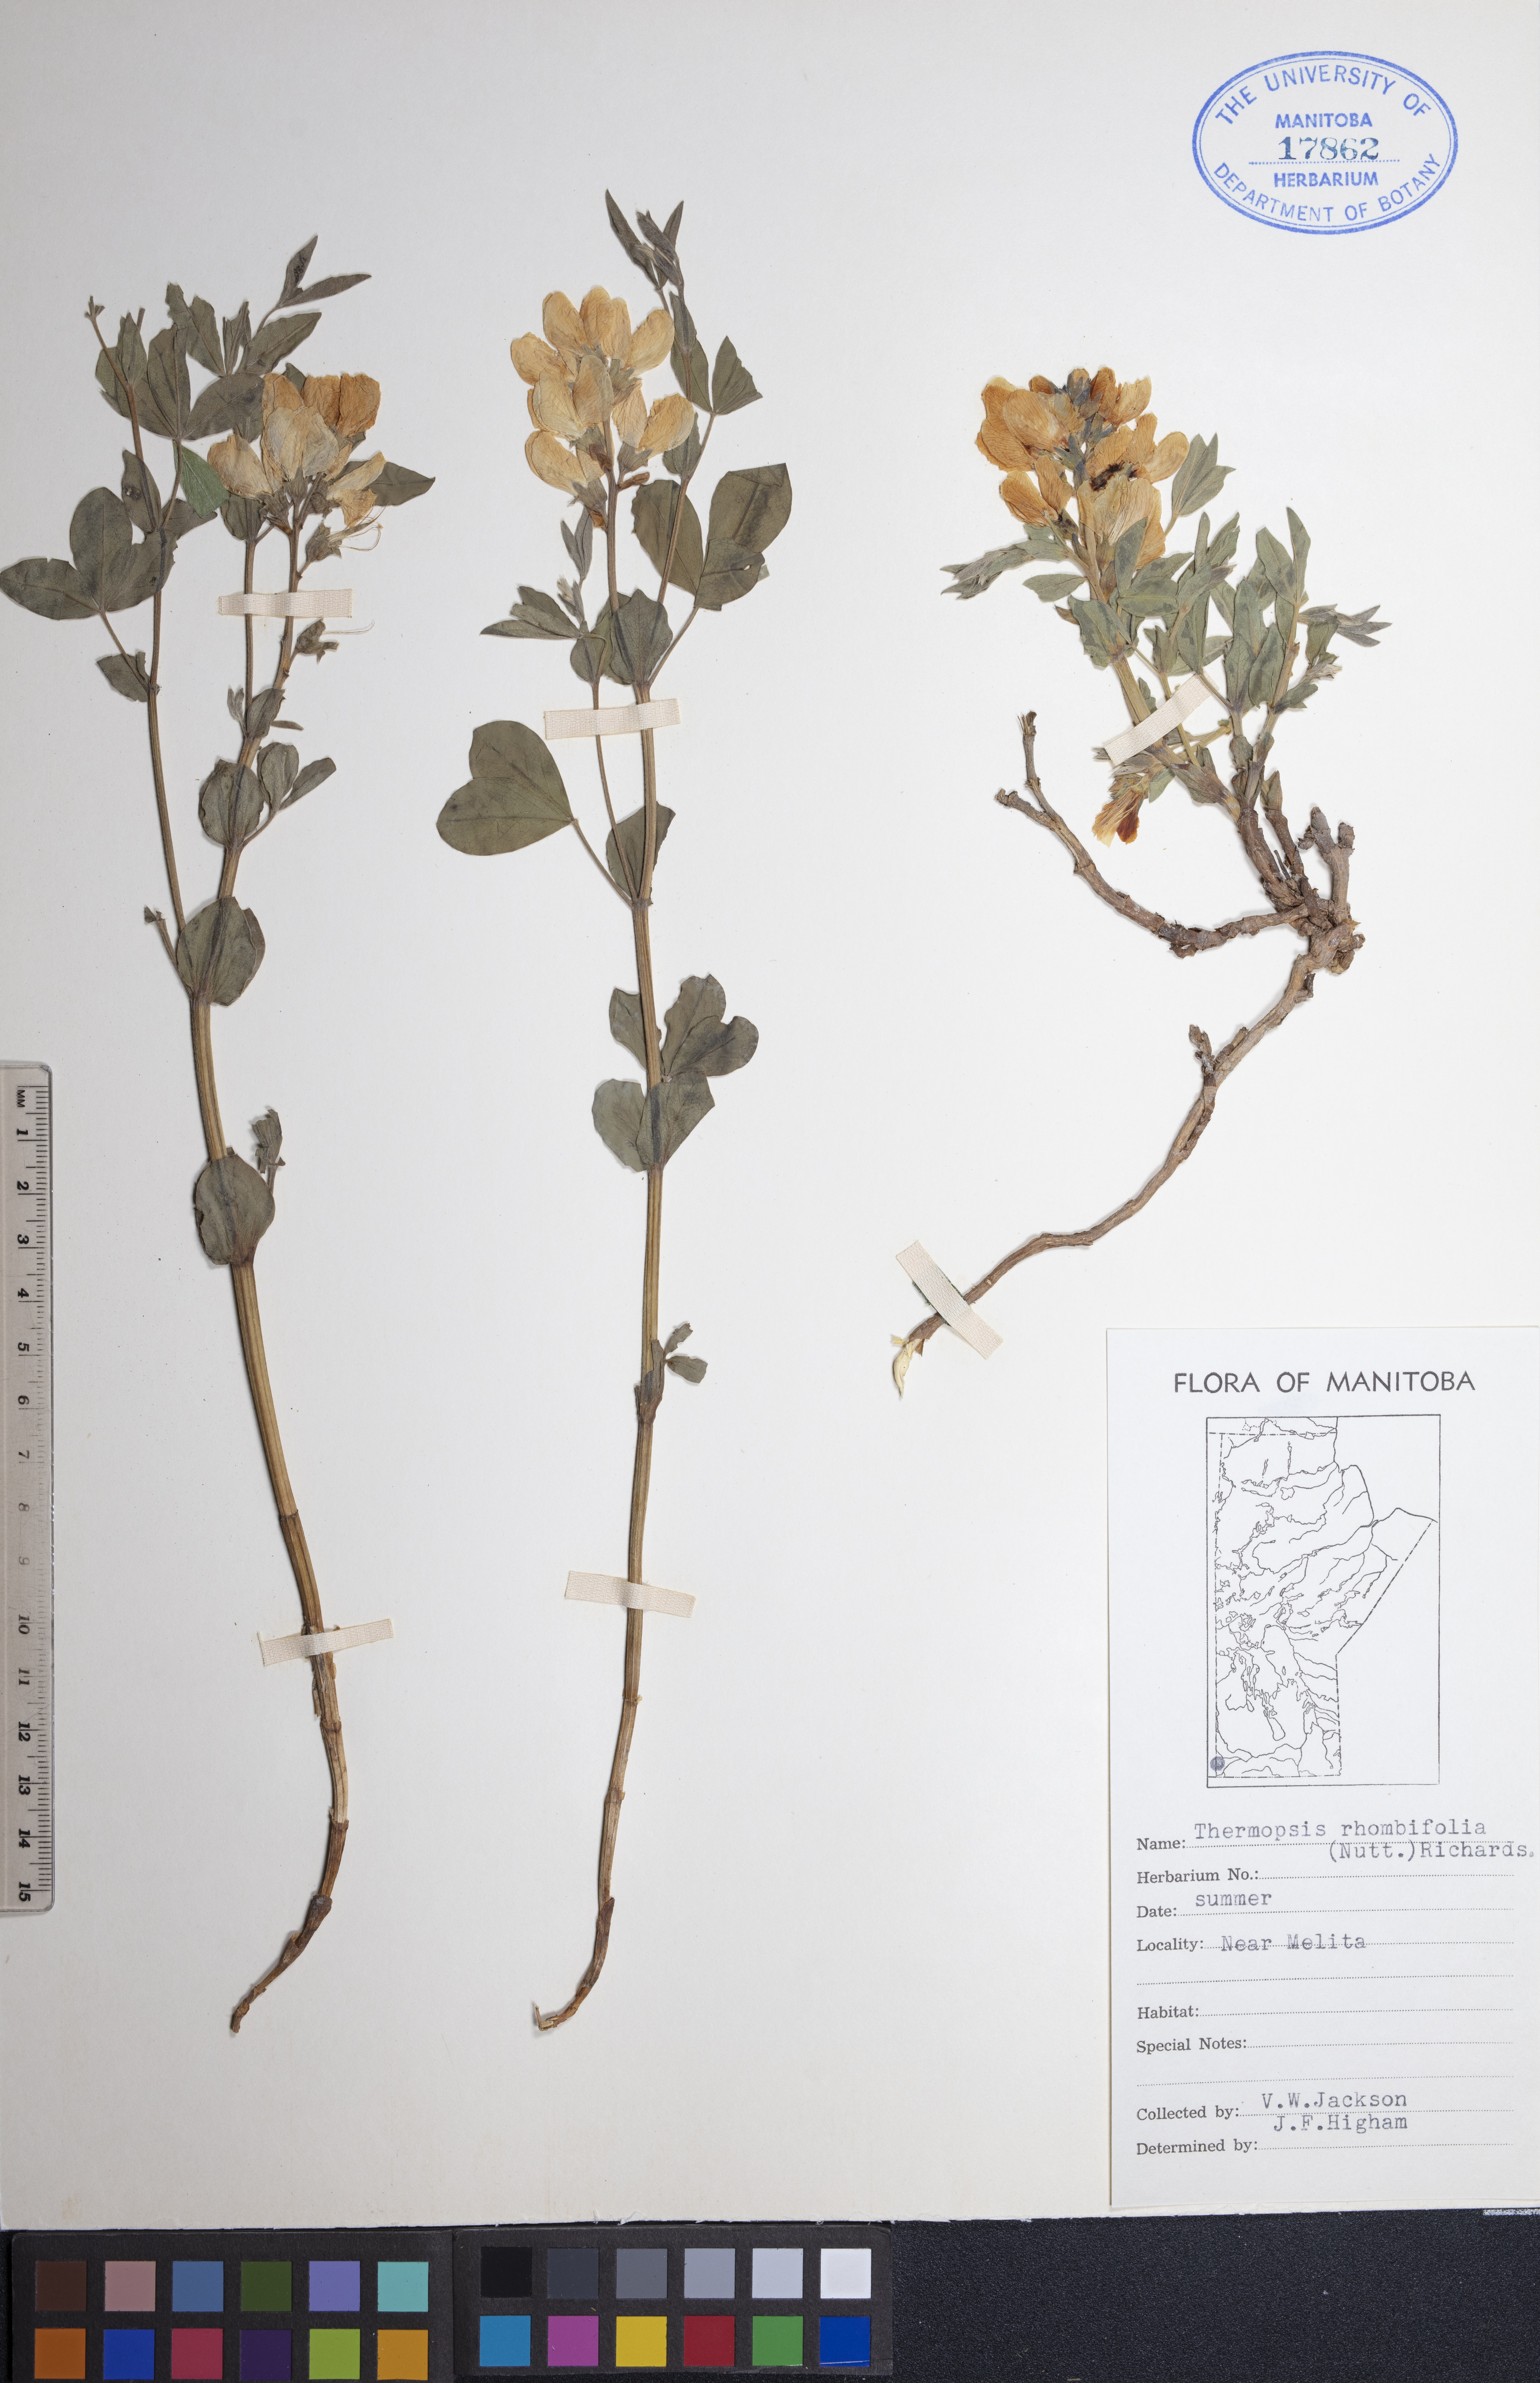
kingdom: Plantae
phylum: Tracheophyta
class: Magnoliopsida
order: Fabales
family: Fabaceae
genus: Thermopsis
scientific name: Thermopsis rhombifolia
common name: Circle-pod-pea
